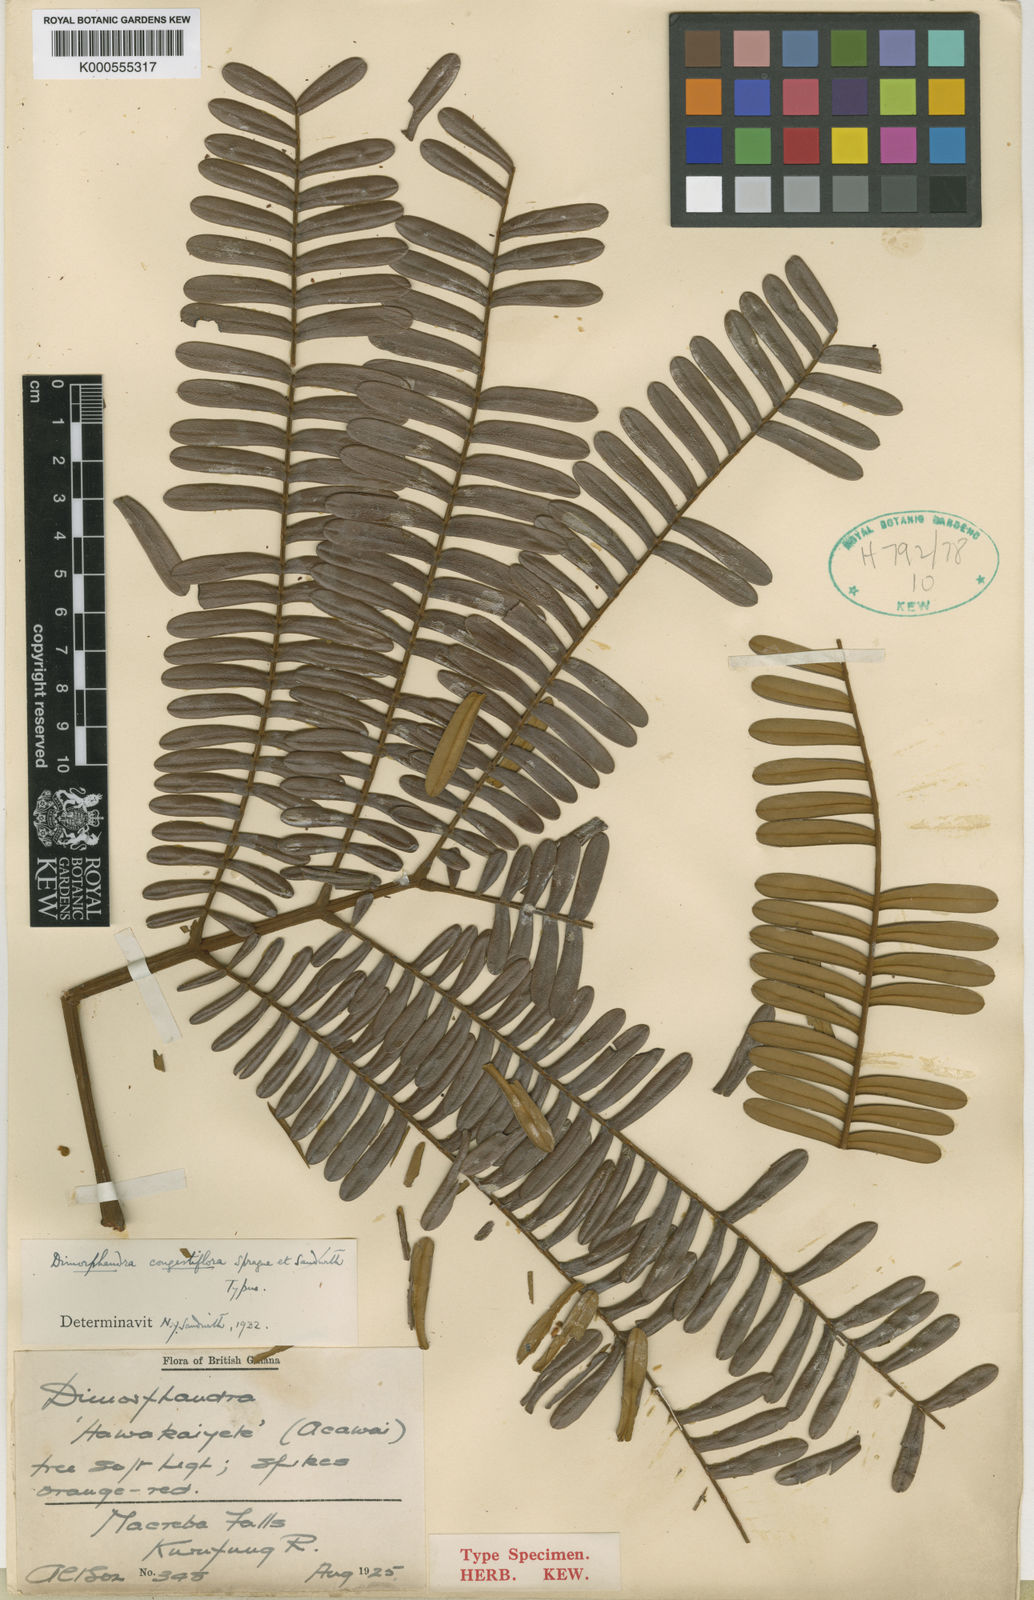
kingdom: Plantae
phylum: Tracheophyta
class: Magnoliopsida
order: Fabales
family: Fabaceae
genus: Dimorphandra
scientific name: Dimorphandra macrostachya
